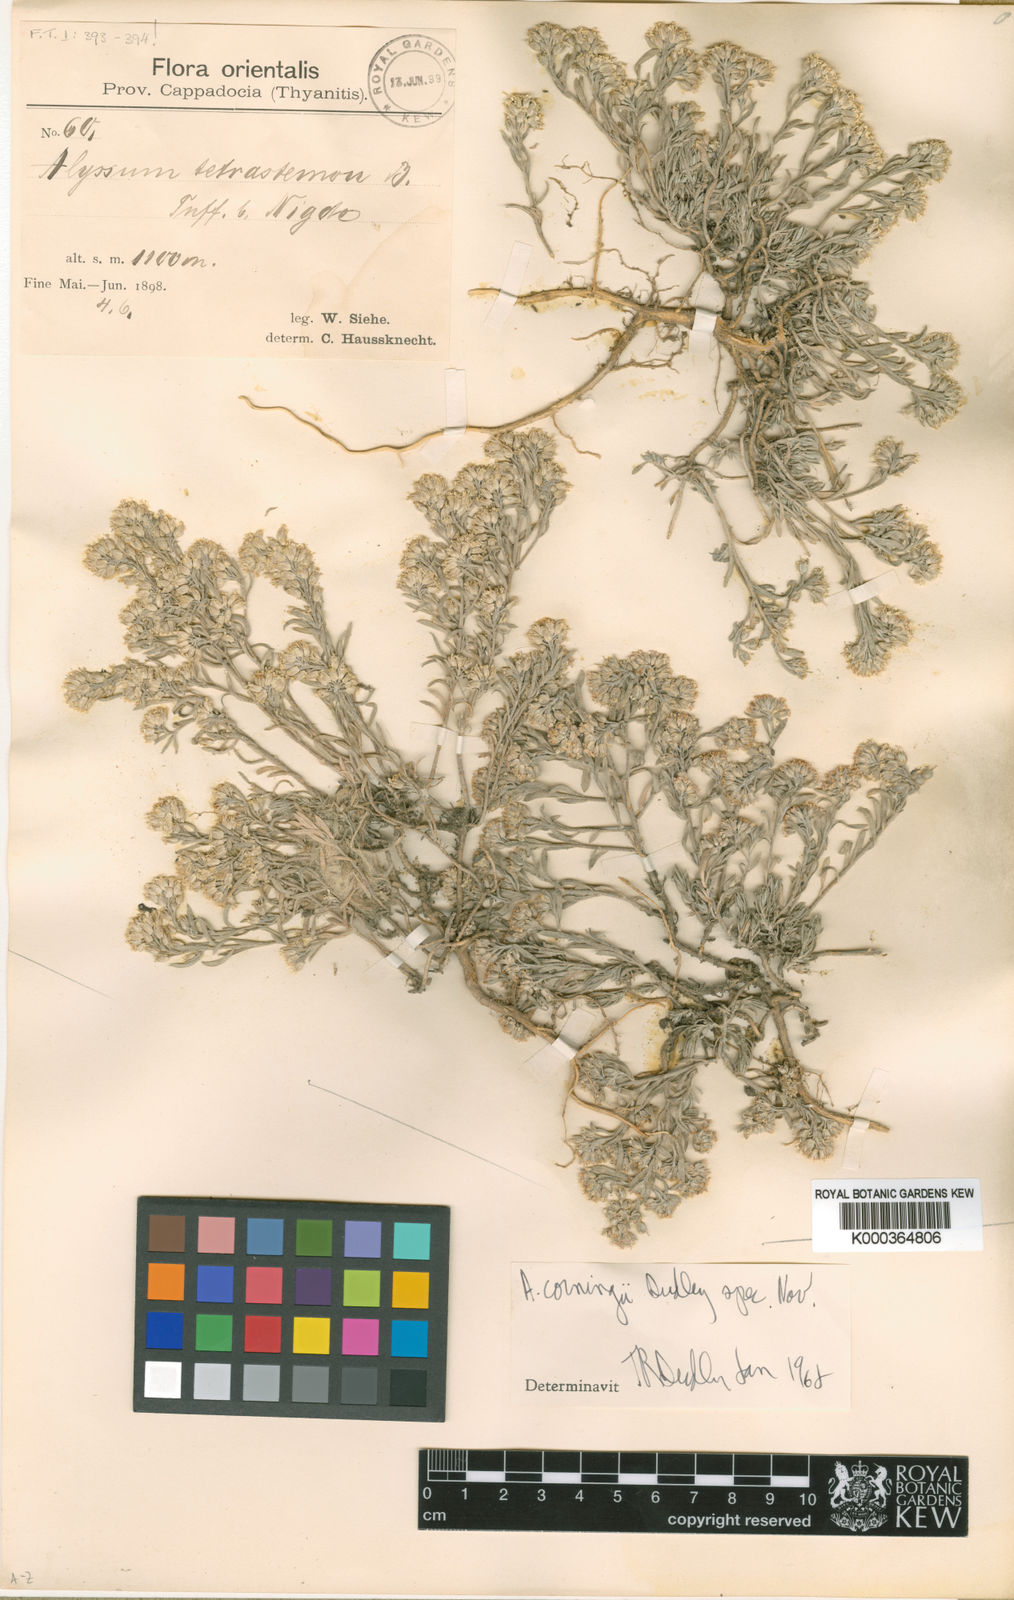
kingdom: Plantae
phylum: Tracheophyta
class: Magnoliopsida
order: Brassicales
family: Brassicaceae
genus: Alyssum
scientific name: Alyssum tetrastemon
